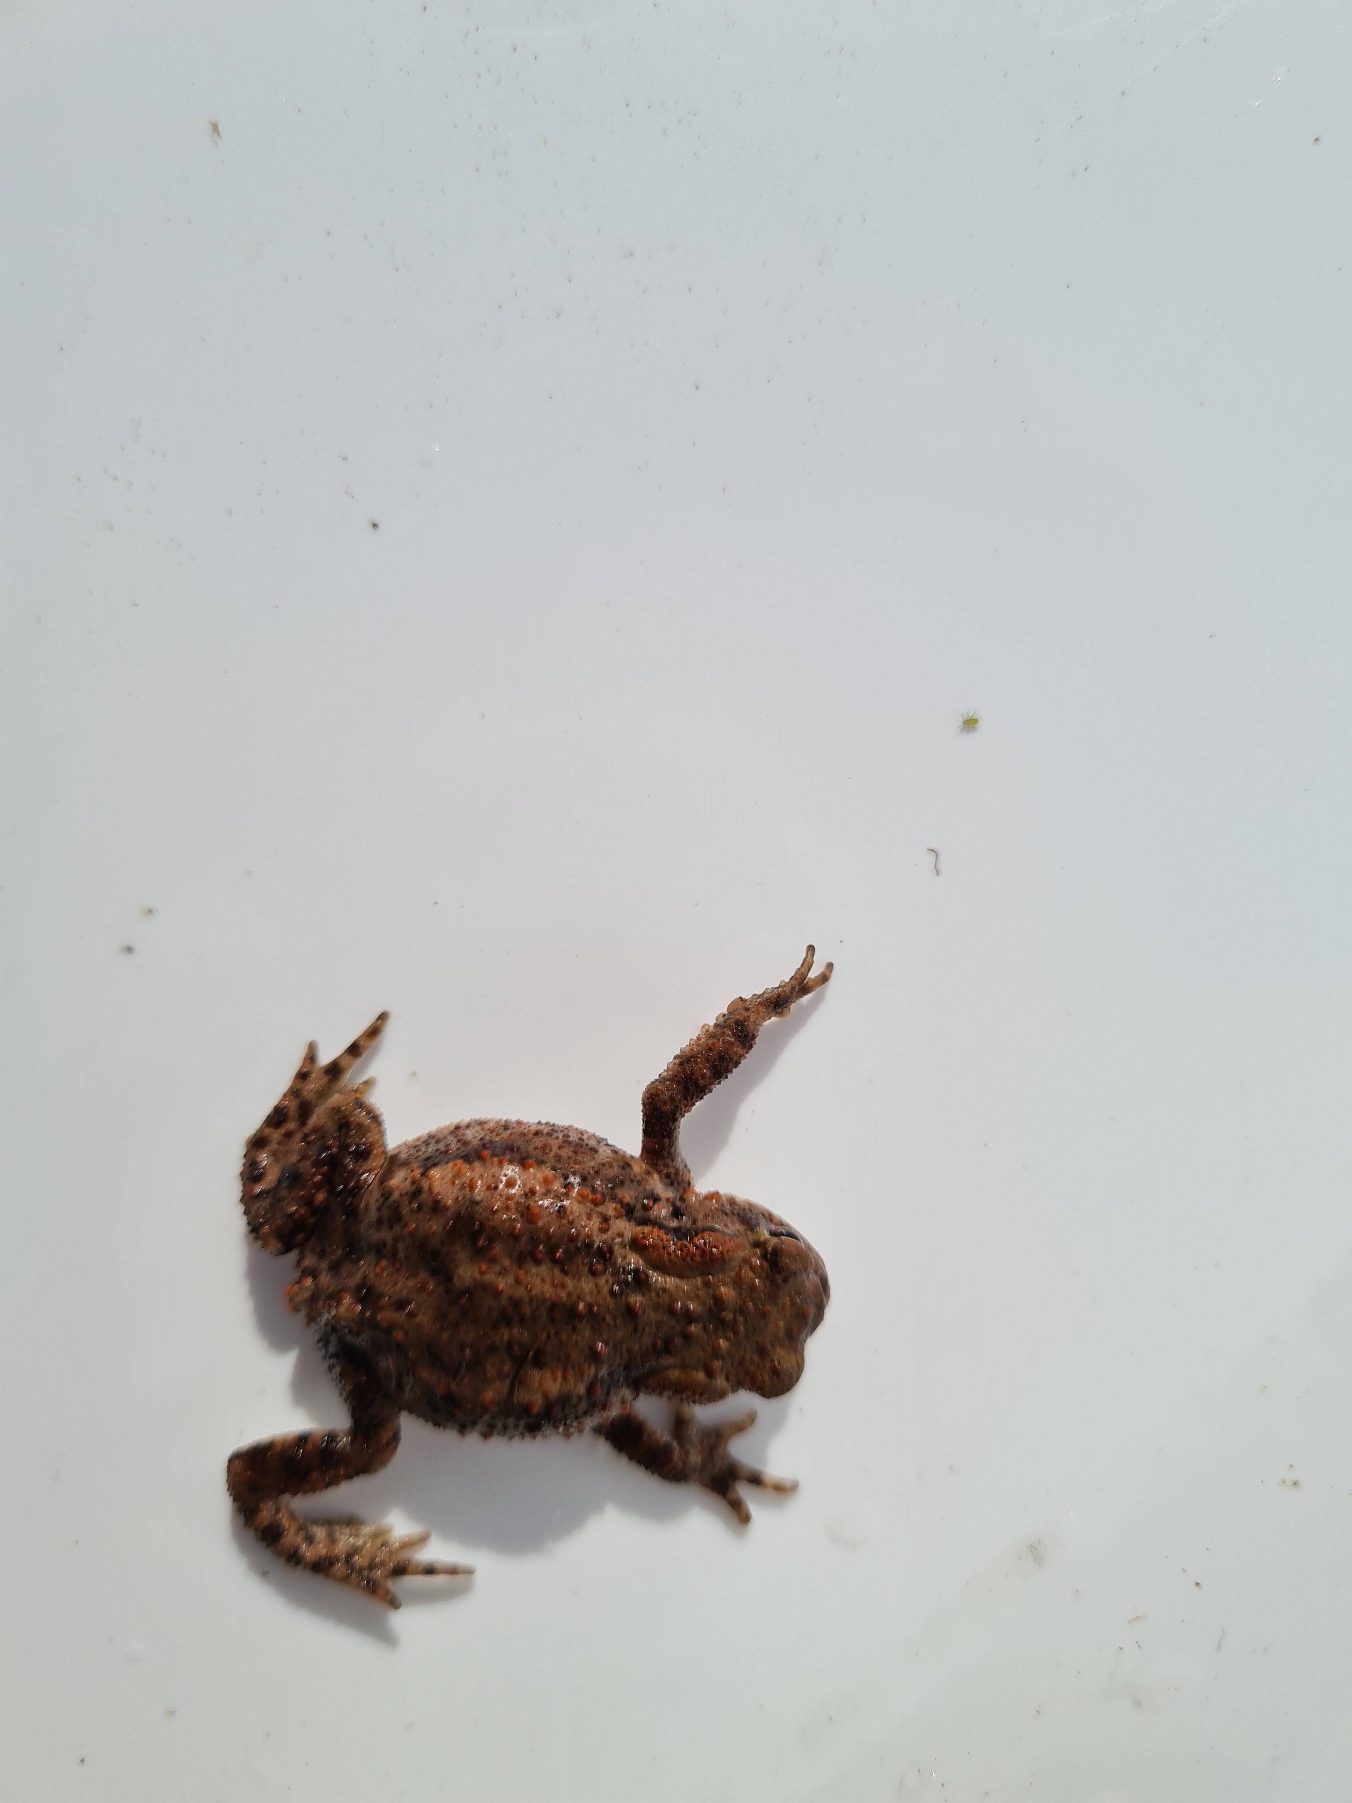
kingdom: Animalia
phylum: Chordata
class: Amphibia
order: Anura
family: Bufonidae
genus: Bufo
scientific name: Bufo bufo
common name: Skrubtudse
